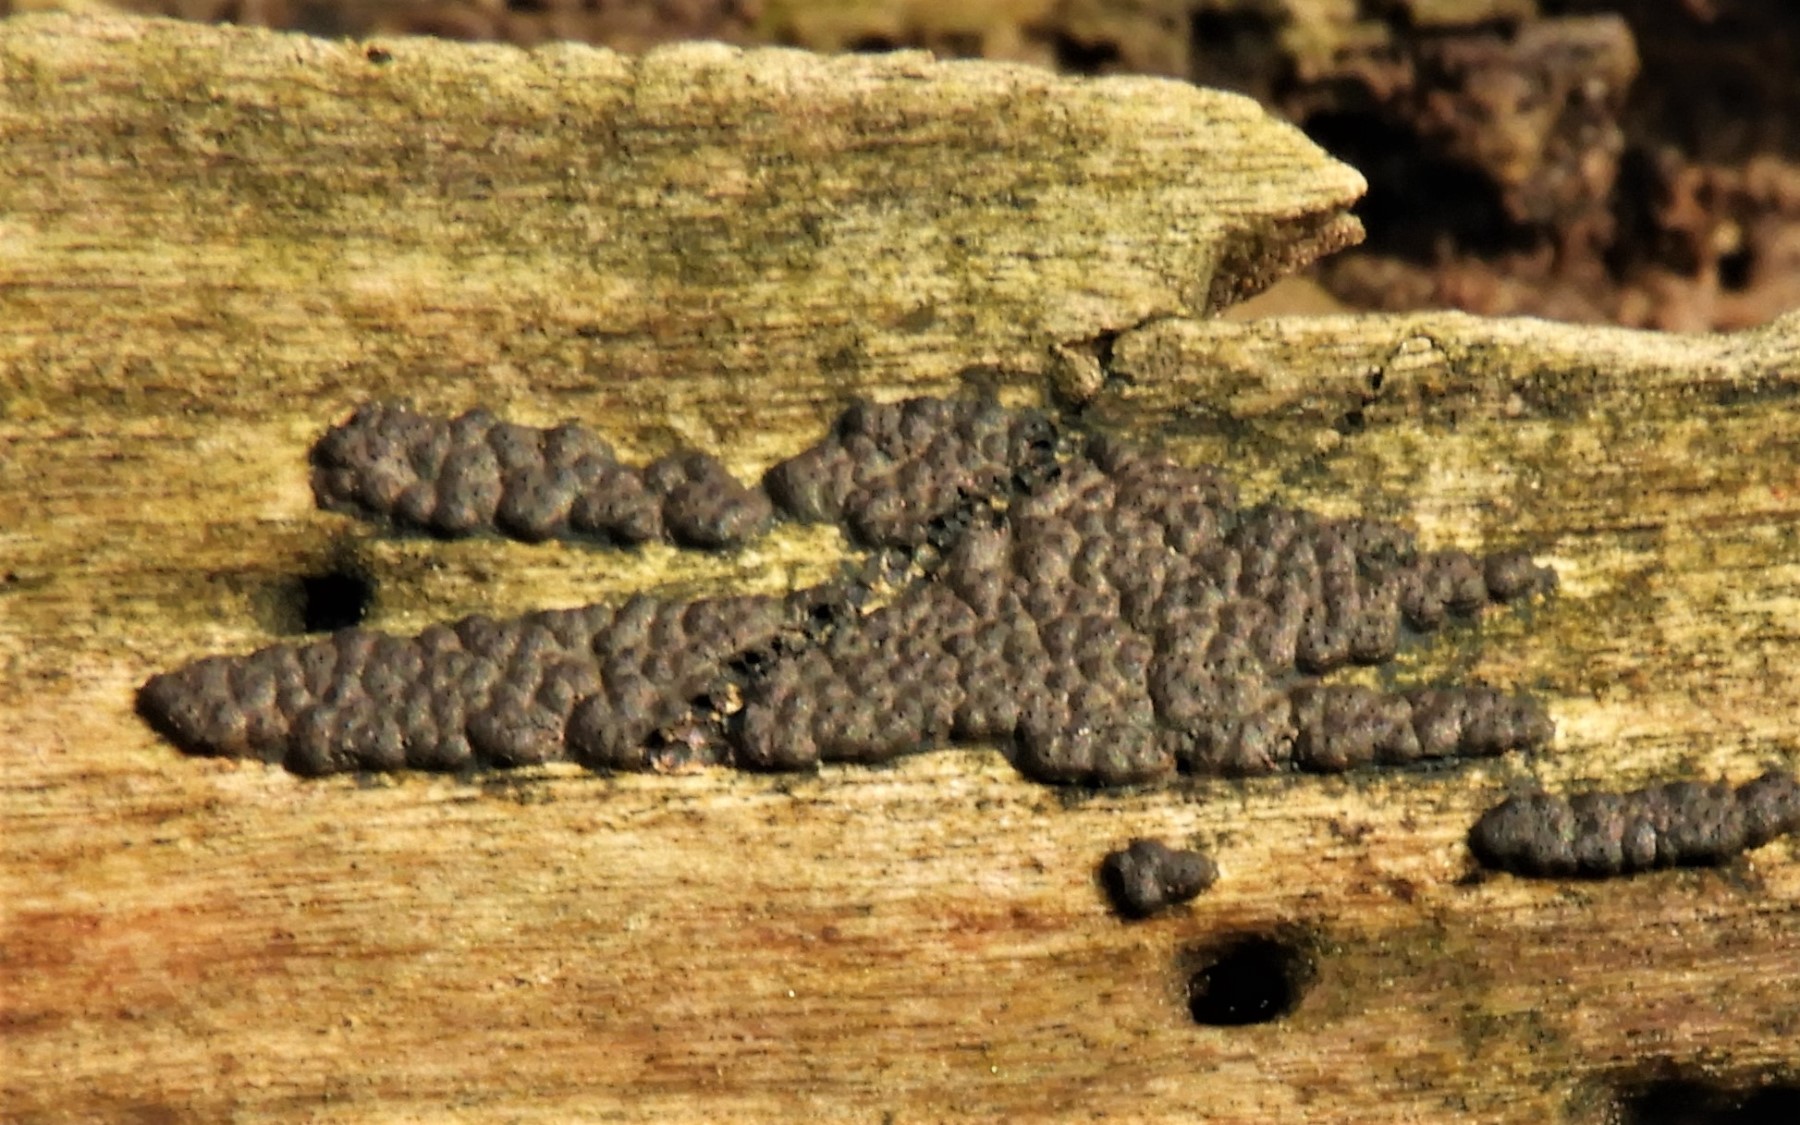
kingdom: Fungi
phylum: Ascomycota
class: Sordariomycetes
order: Xylariales
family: Xylariaceae
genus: Nemania
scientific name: Nemania
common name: kuldyne
